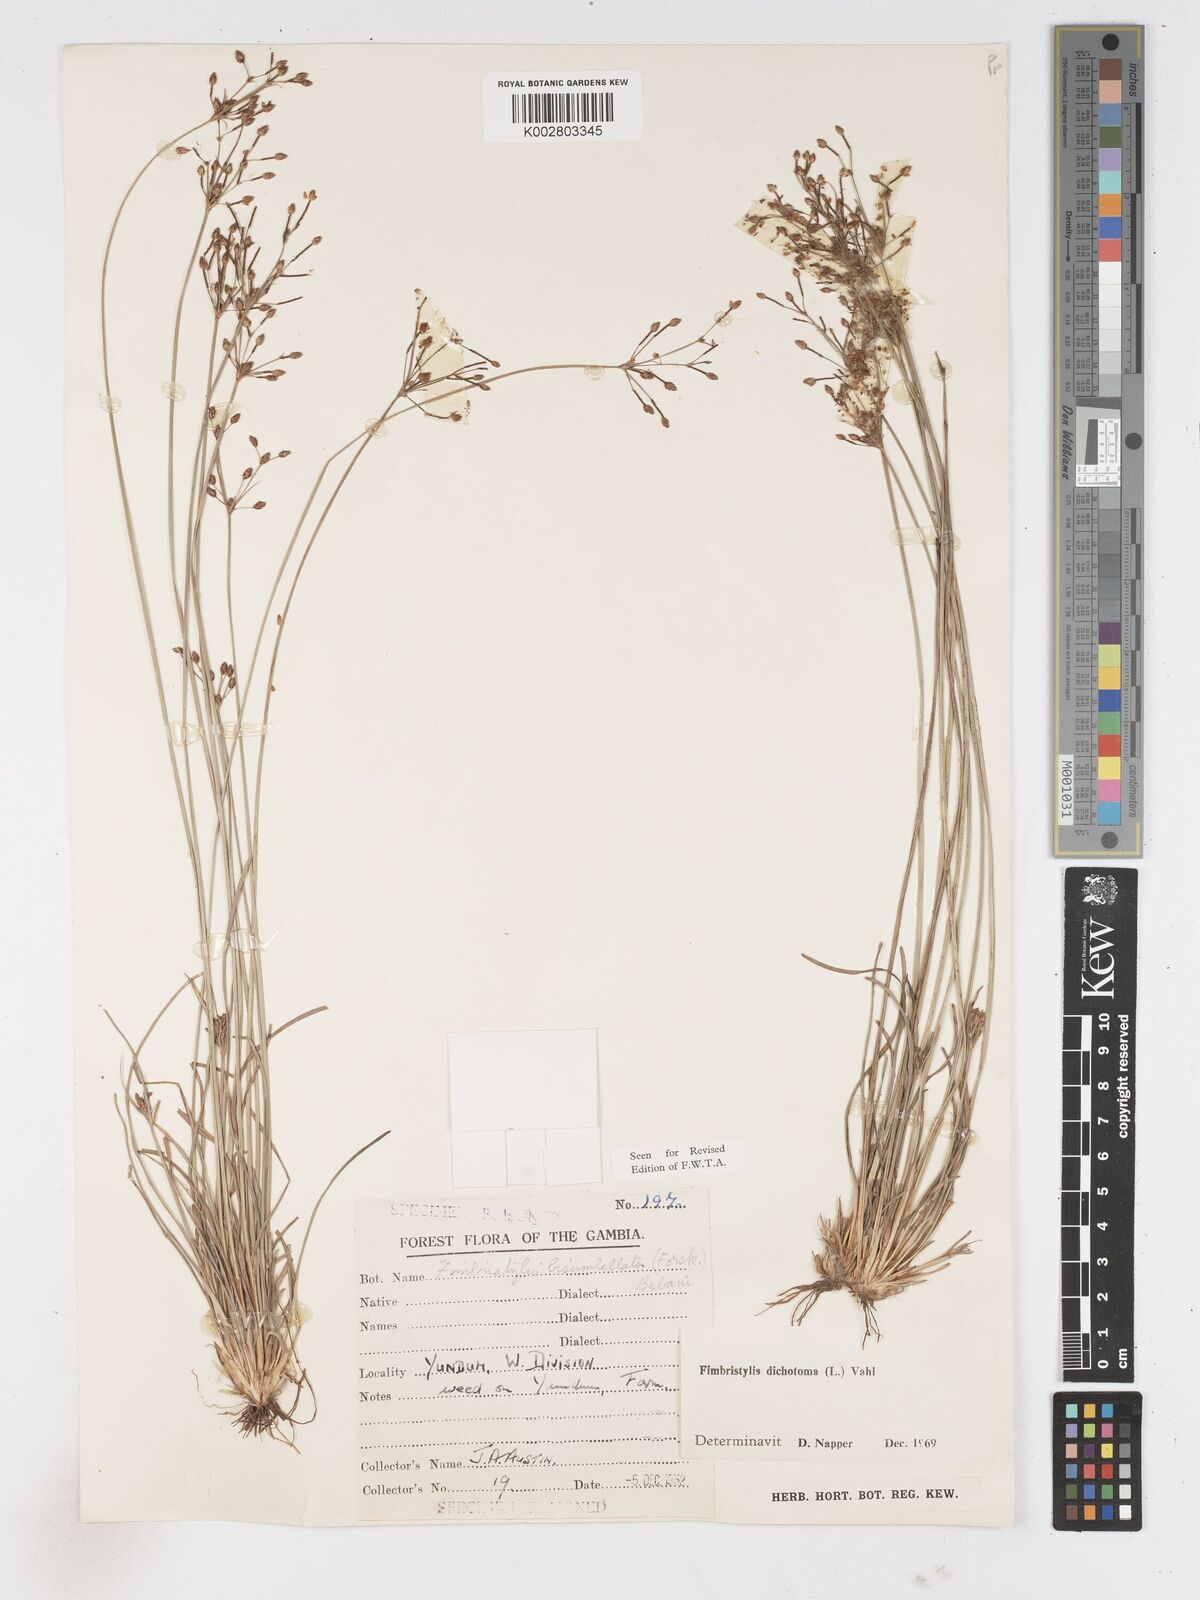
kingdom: Plantae
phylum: Tracheophyta
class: Liliopsida
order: Poales
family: Cyperaceae
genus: Fimbristylis
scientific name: Fimbristylis dichotoma
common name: Forked fimbry
